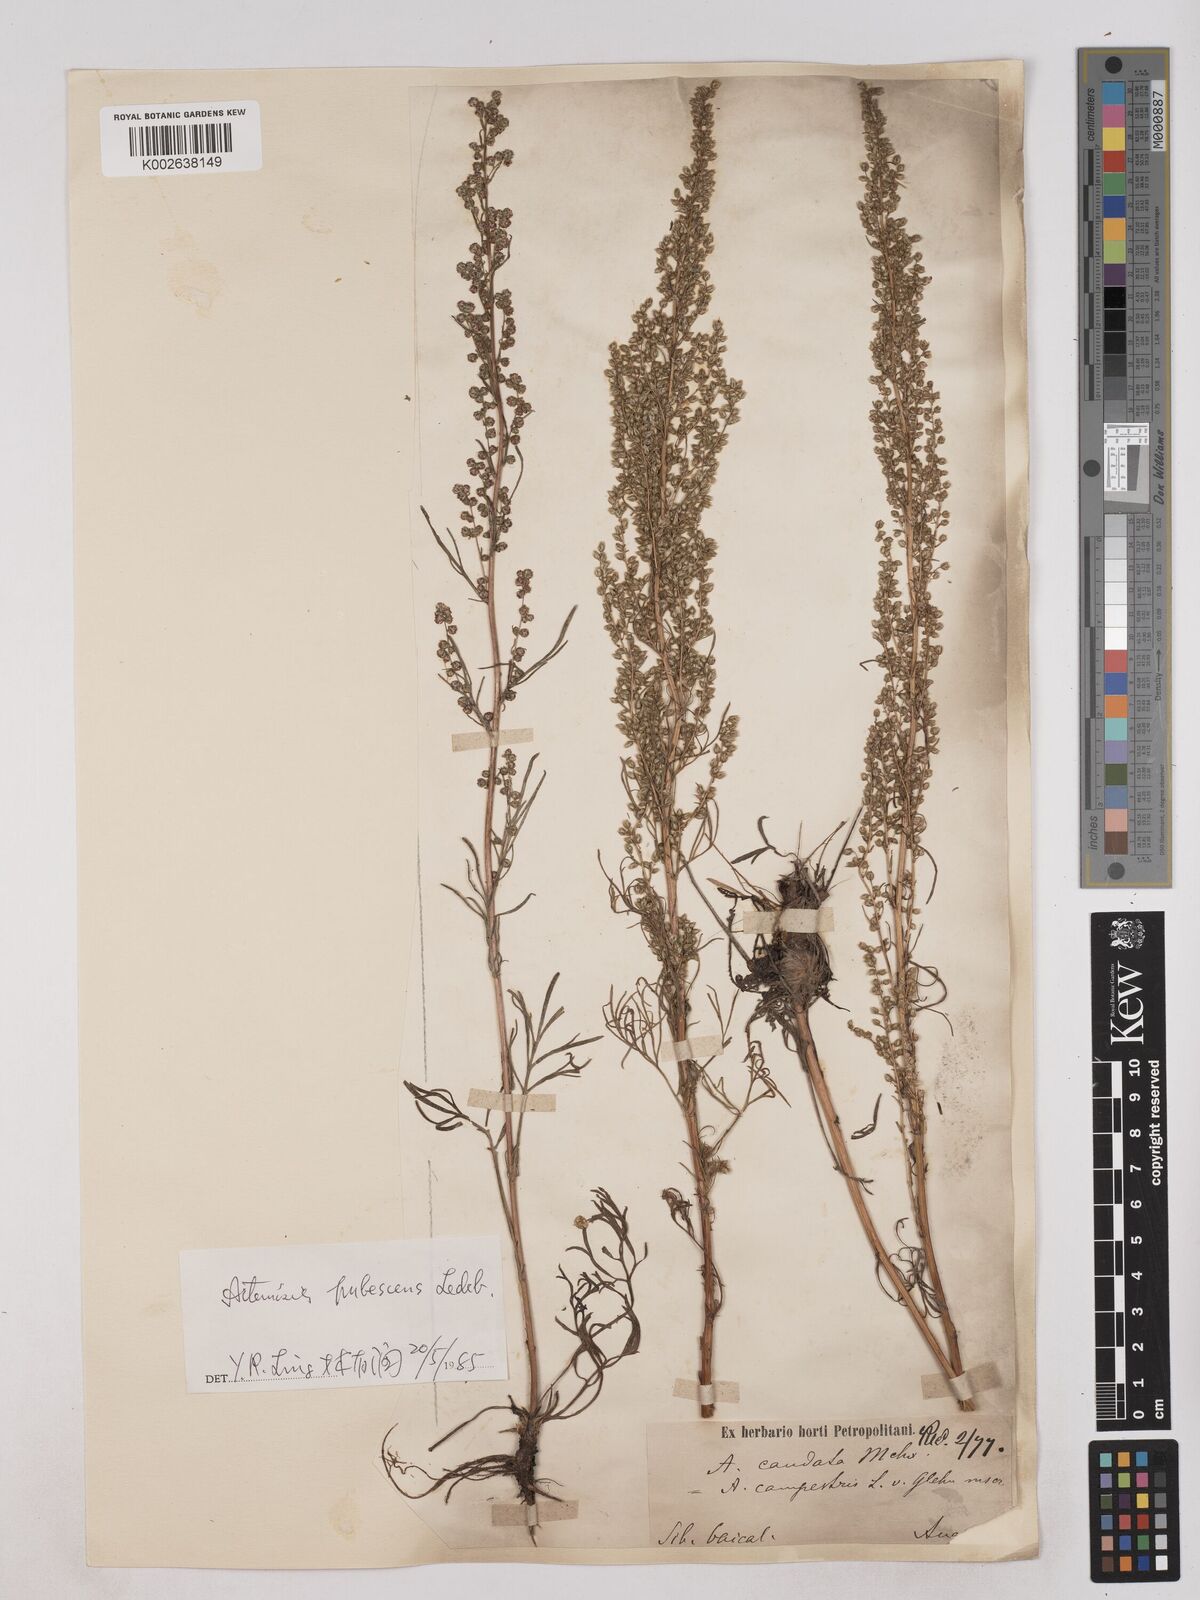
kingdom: Plantae
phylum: Tracheophyta
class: Magnoliopsida
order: Asterales
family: Asteraceae
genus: Artemisia
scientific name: Artemisia pubescens
